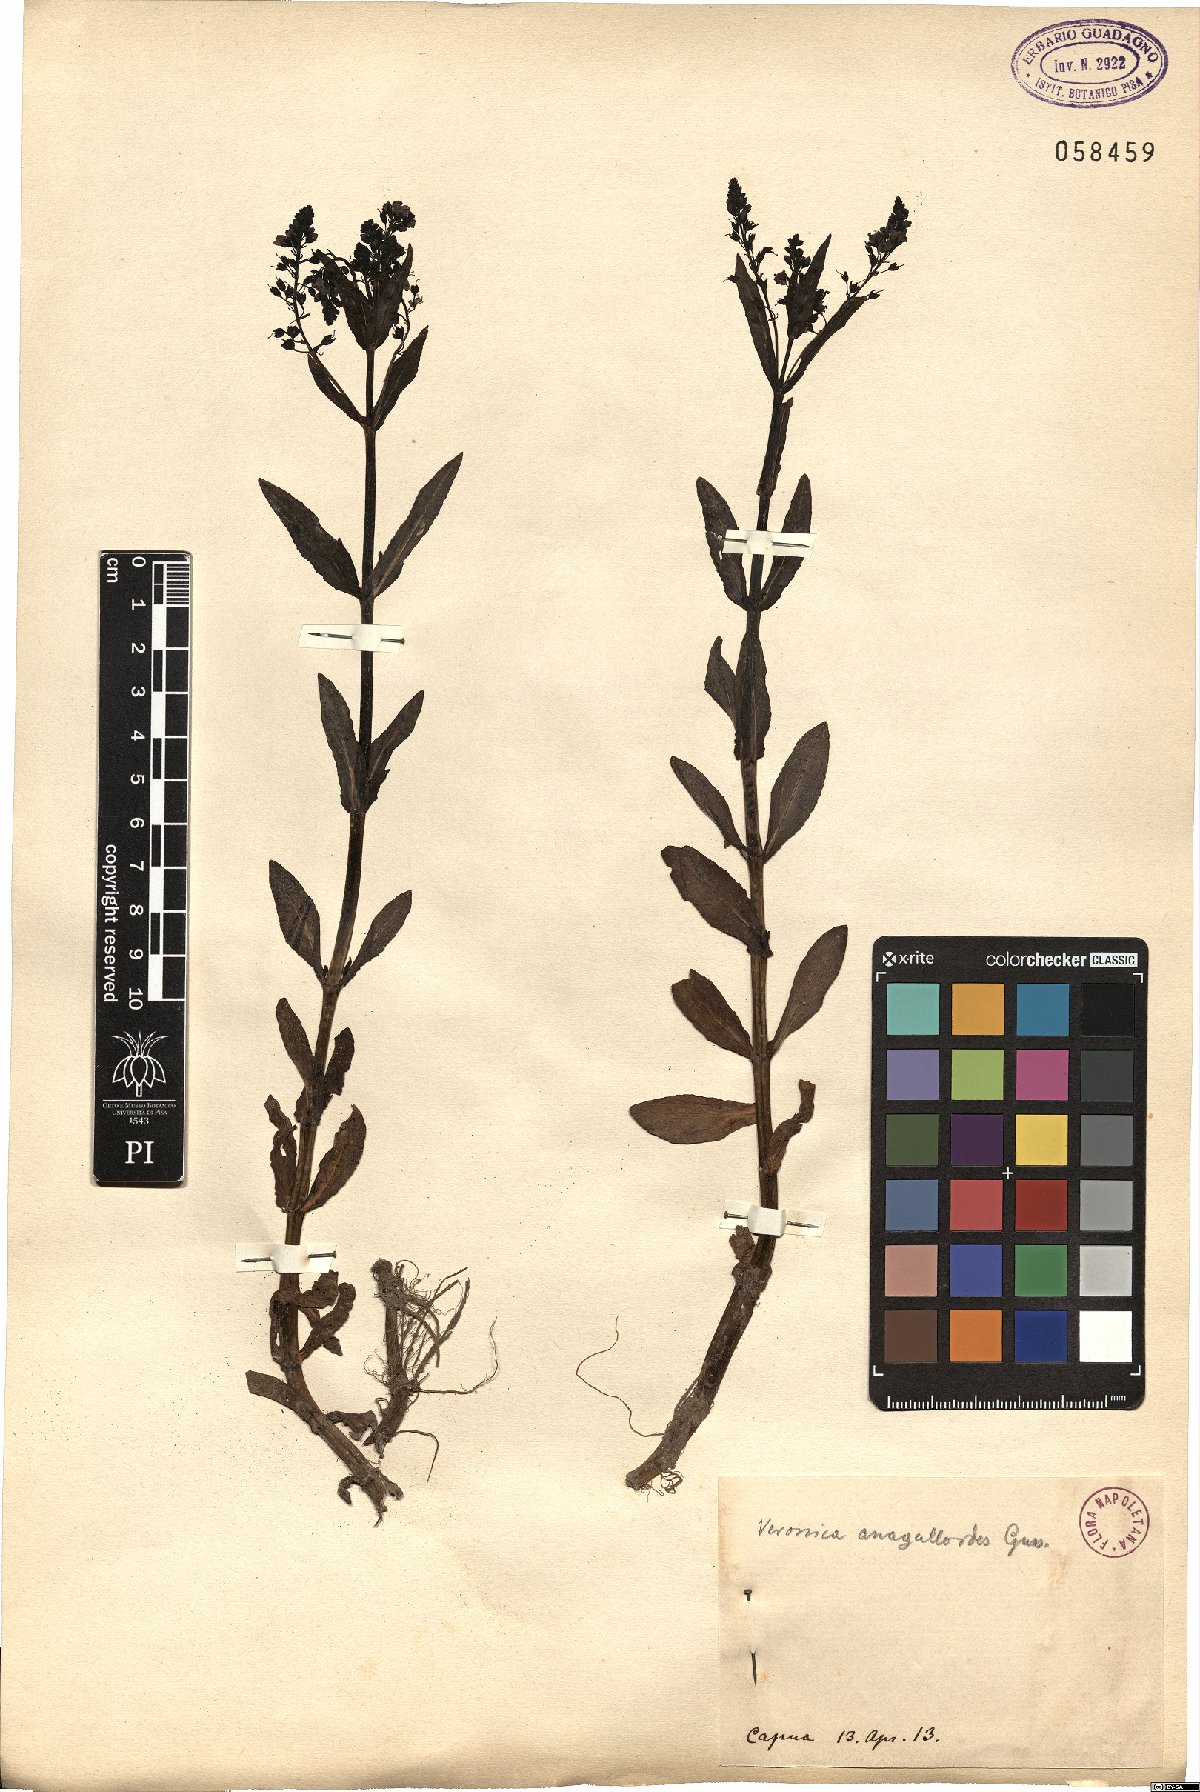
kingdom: Plantae
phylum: Tracheophyta
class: Magnoliopsida
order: Lamiales
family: Plantaginaceae
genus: Veronica
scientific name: Veronica anagalloides
